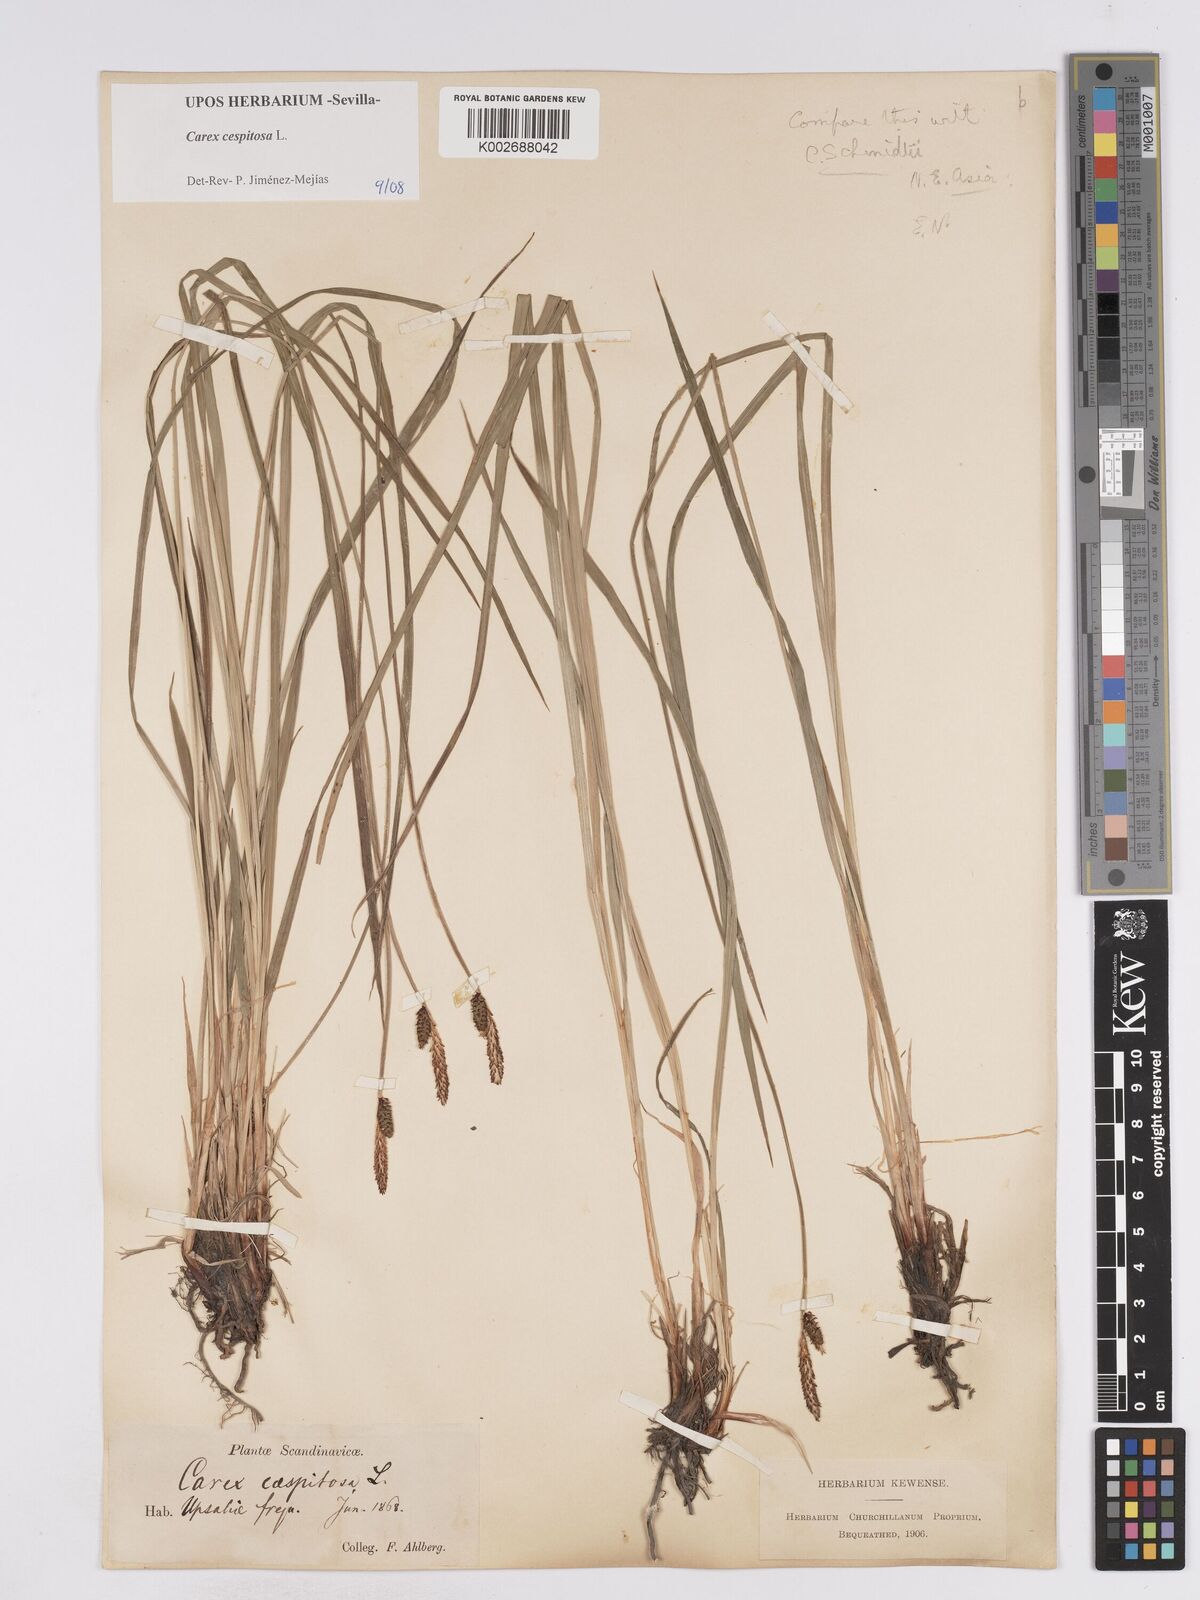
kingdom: Plantae
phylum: Tracheophyta
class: Liliopsida
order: Poales
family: Cyperaceae
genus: Carex
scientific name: Carex
